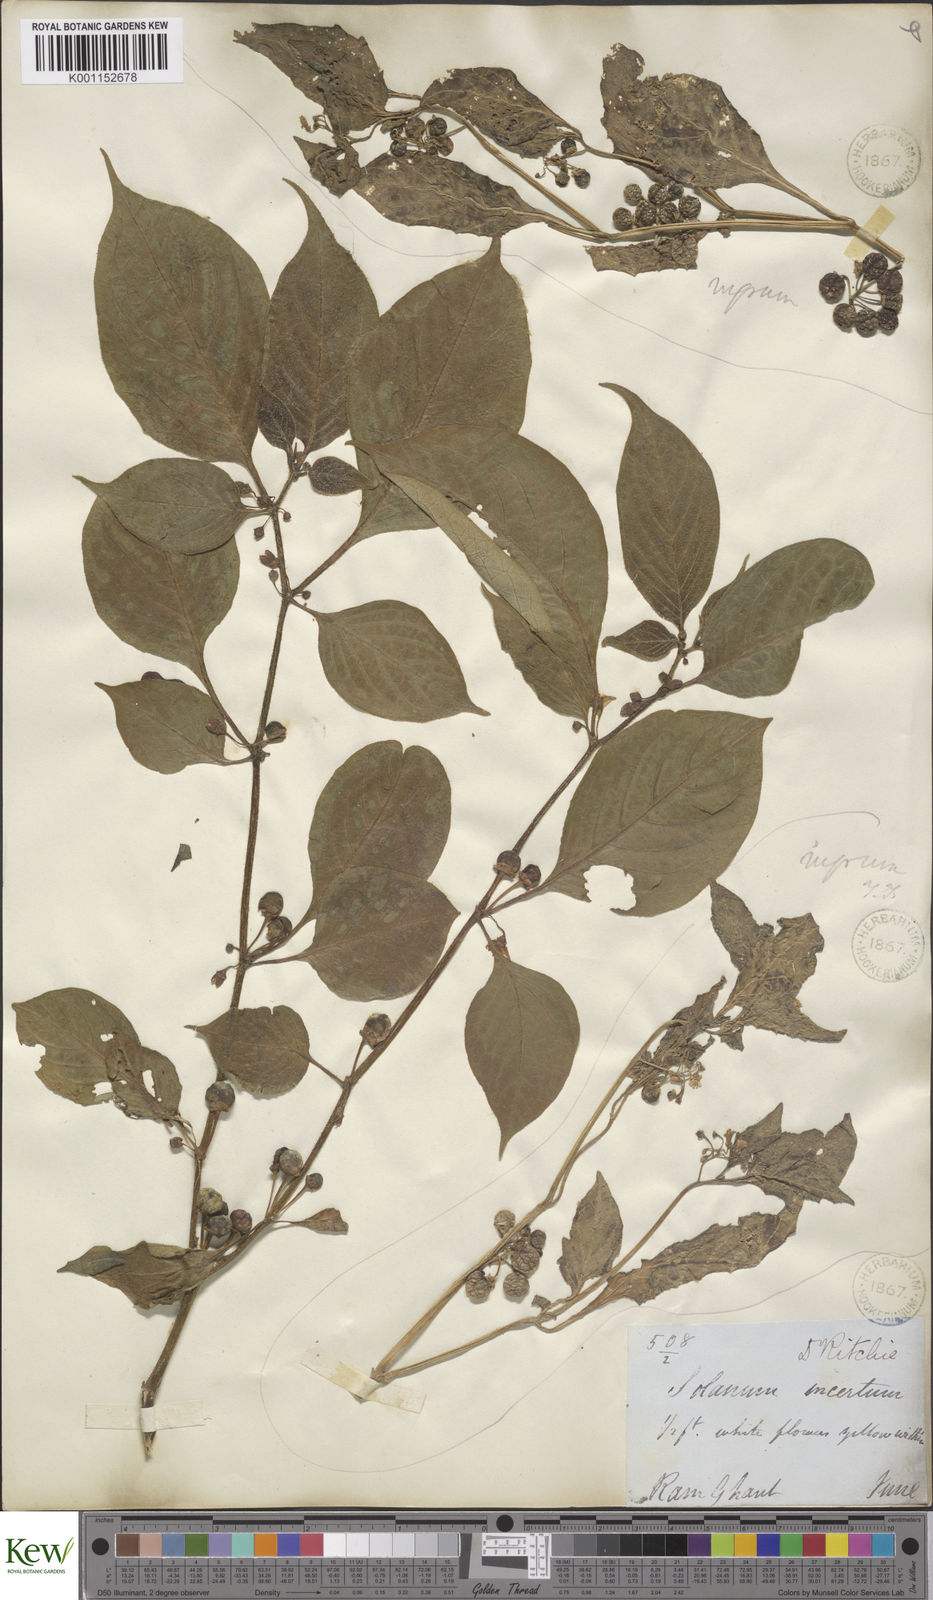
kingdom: Plantae
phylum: Tracheophyta
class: Magnoliopsida
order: Solanales
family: Solanaceae
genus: Solanum
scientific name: Solanum nigrum
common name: Black nightshade
